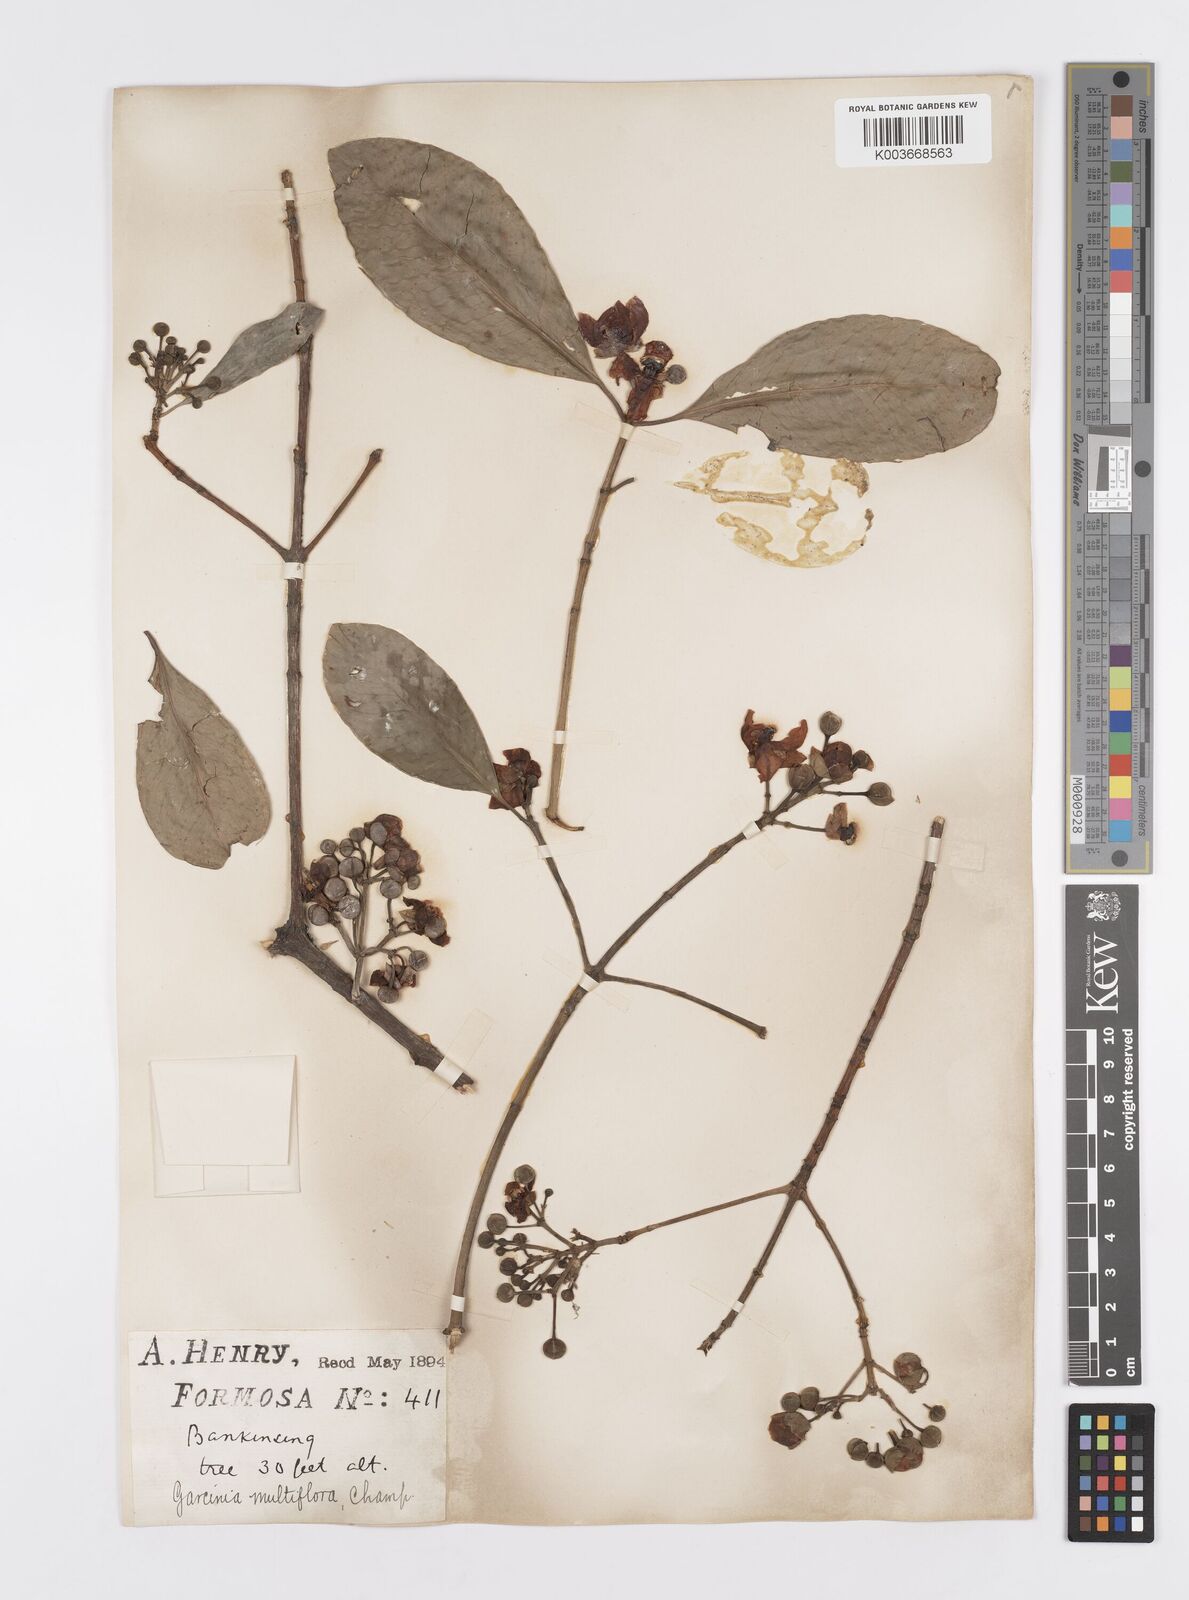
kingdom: Plantae
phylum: Tracheophyta
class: Magnoliopsida
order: Malpighiales
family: Clusiaceae
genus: Garcinia
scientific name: Garcinia multiflora
